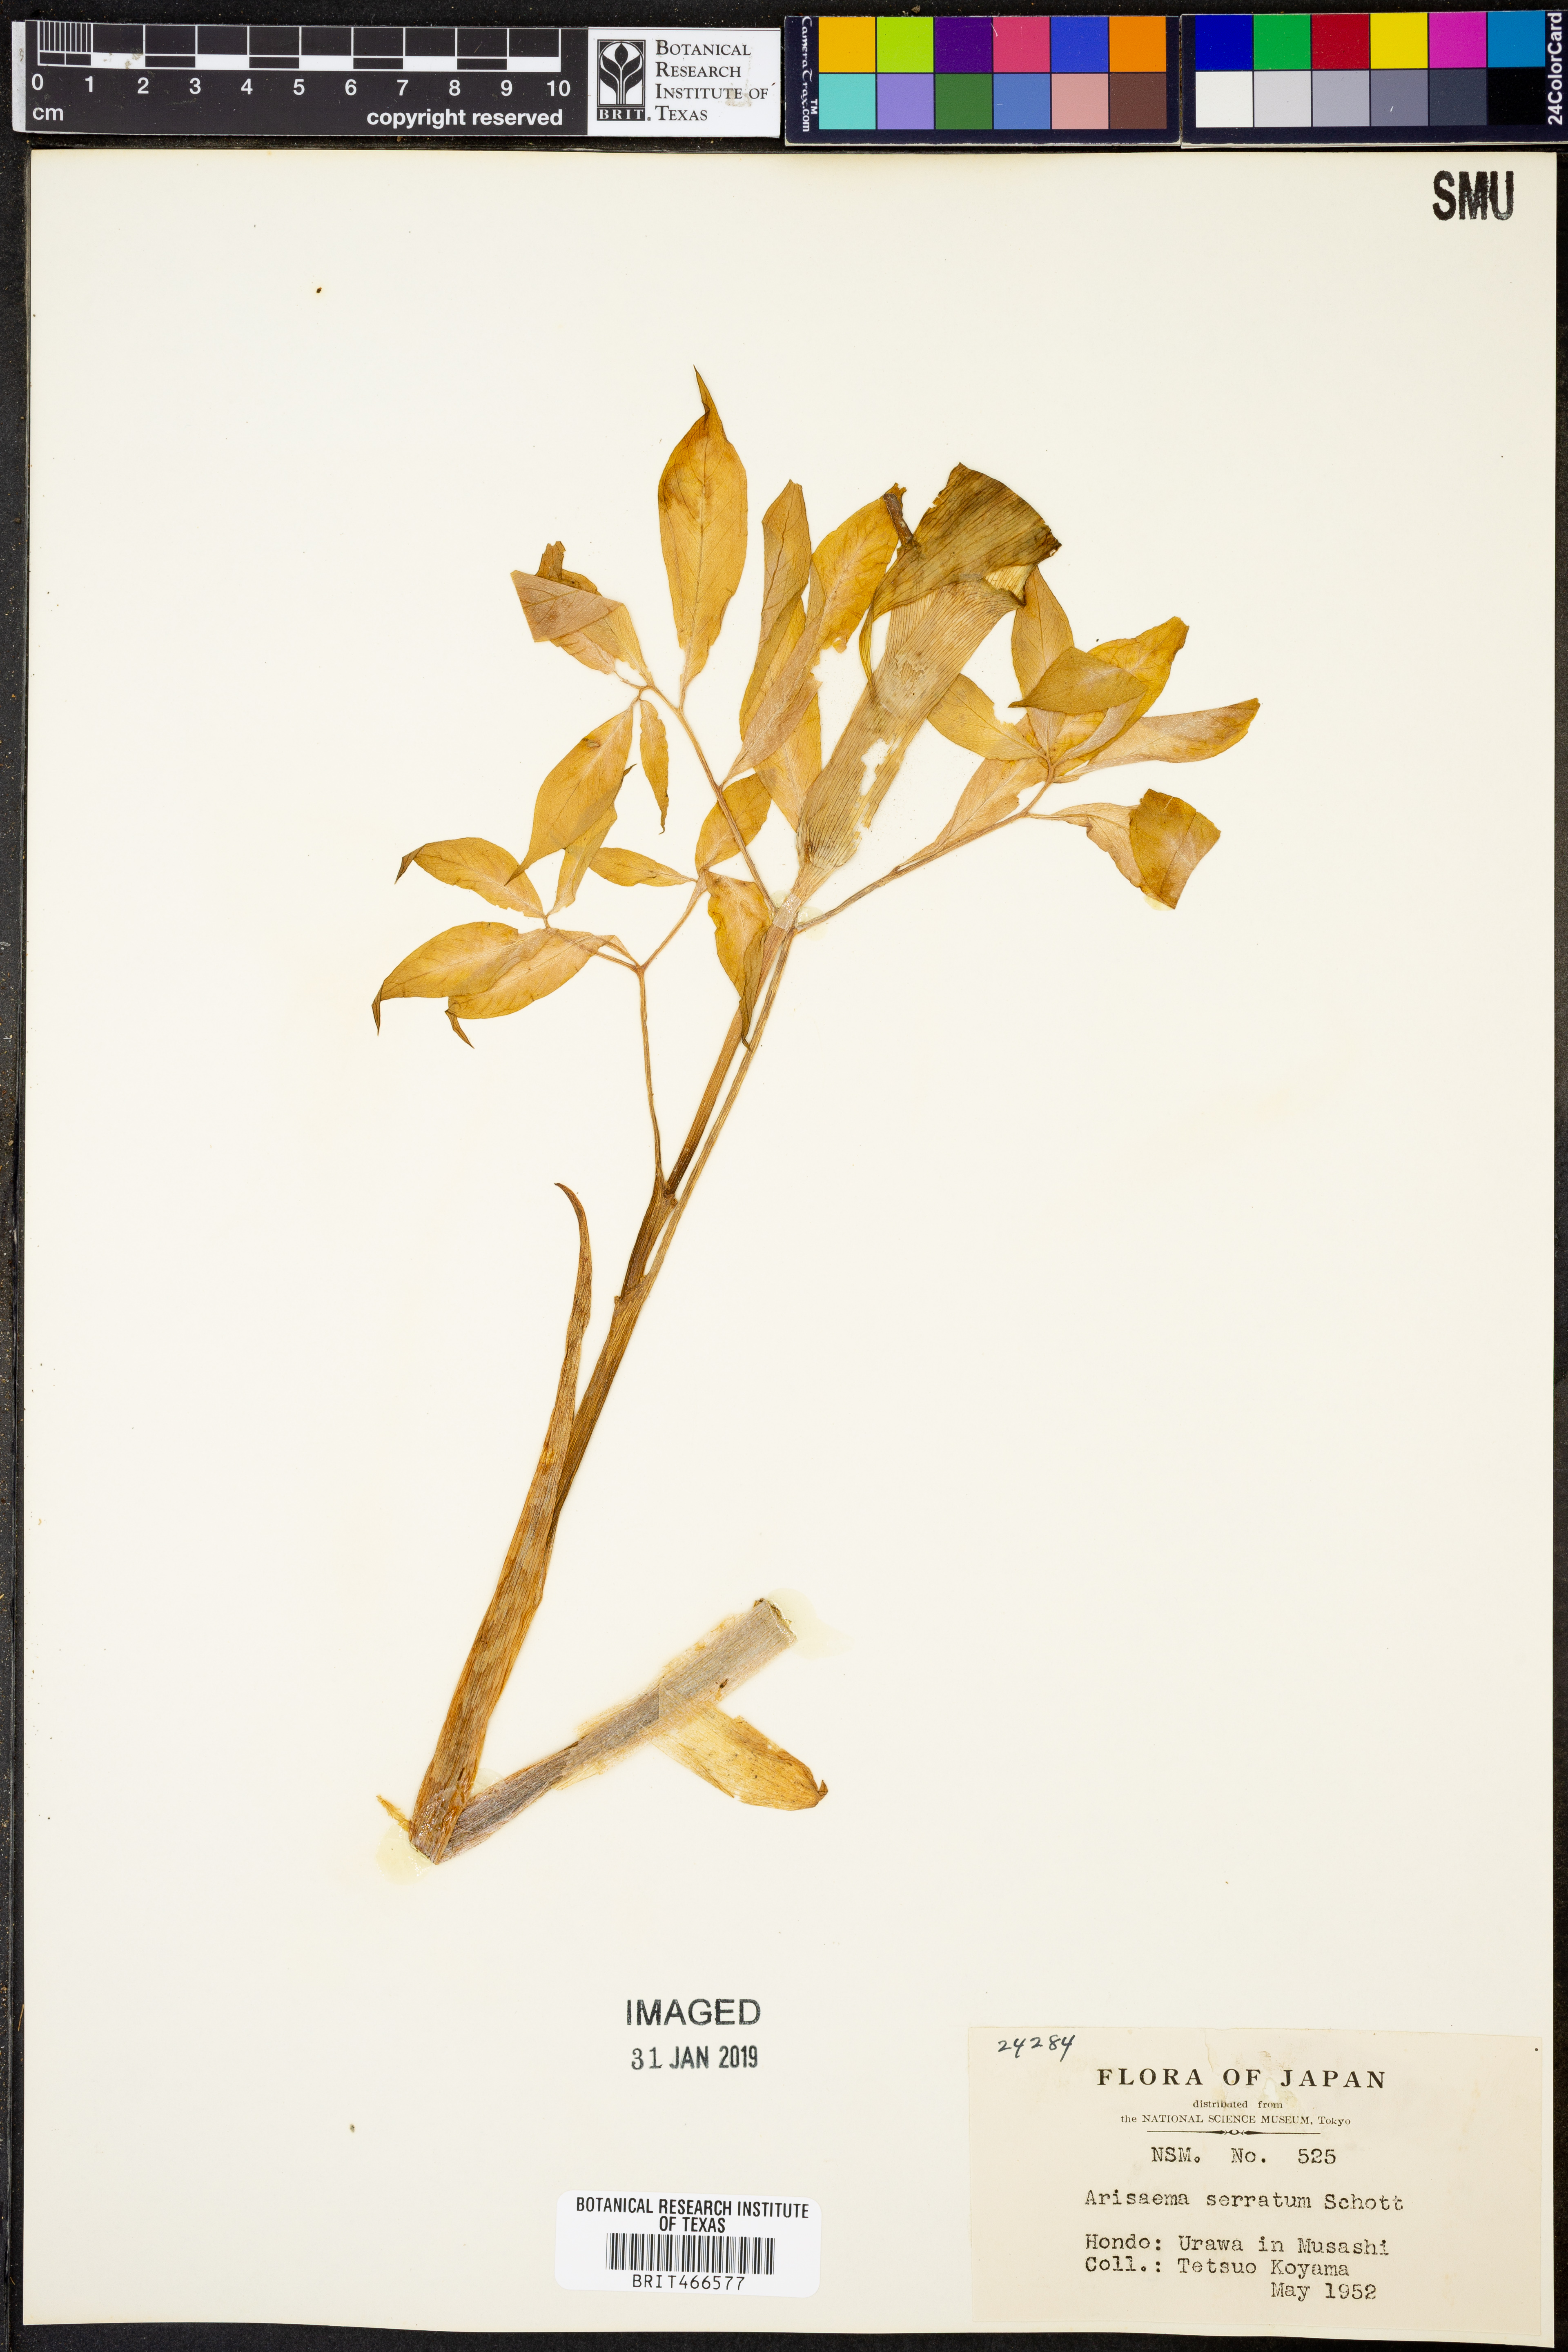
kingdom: Plantae
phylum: Tracheophyta
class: Liliopsida
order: Alismatales
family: Araceae
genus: Arisaema
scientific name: Arisaema serratum
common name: Japanese arisaema
